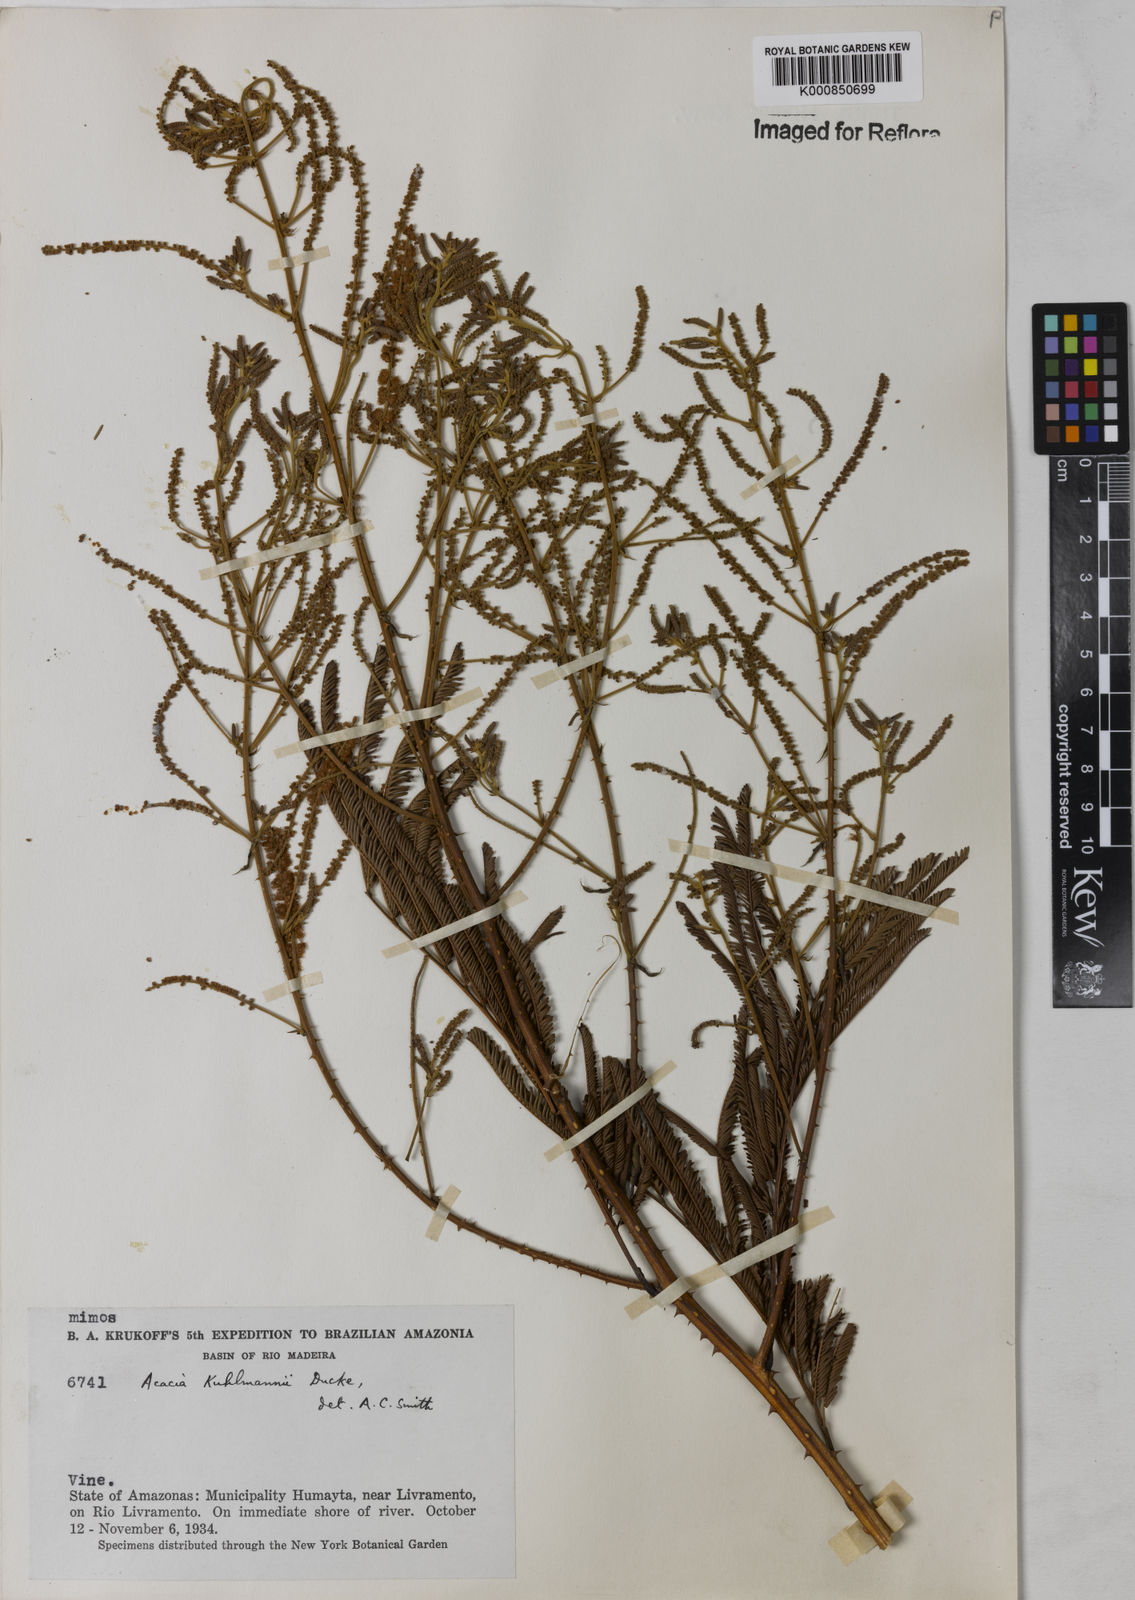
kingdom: Plantae
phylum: Tracheophyta
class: Magnoliopsida
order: Fabales
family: Fabaceae
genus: Senegalia
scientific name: Senegalia kuhlmannii
